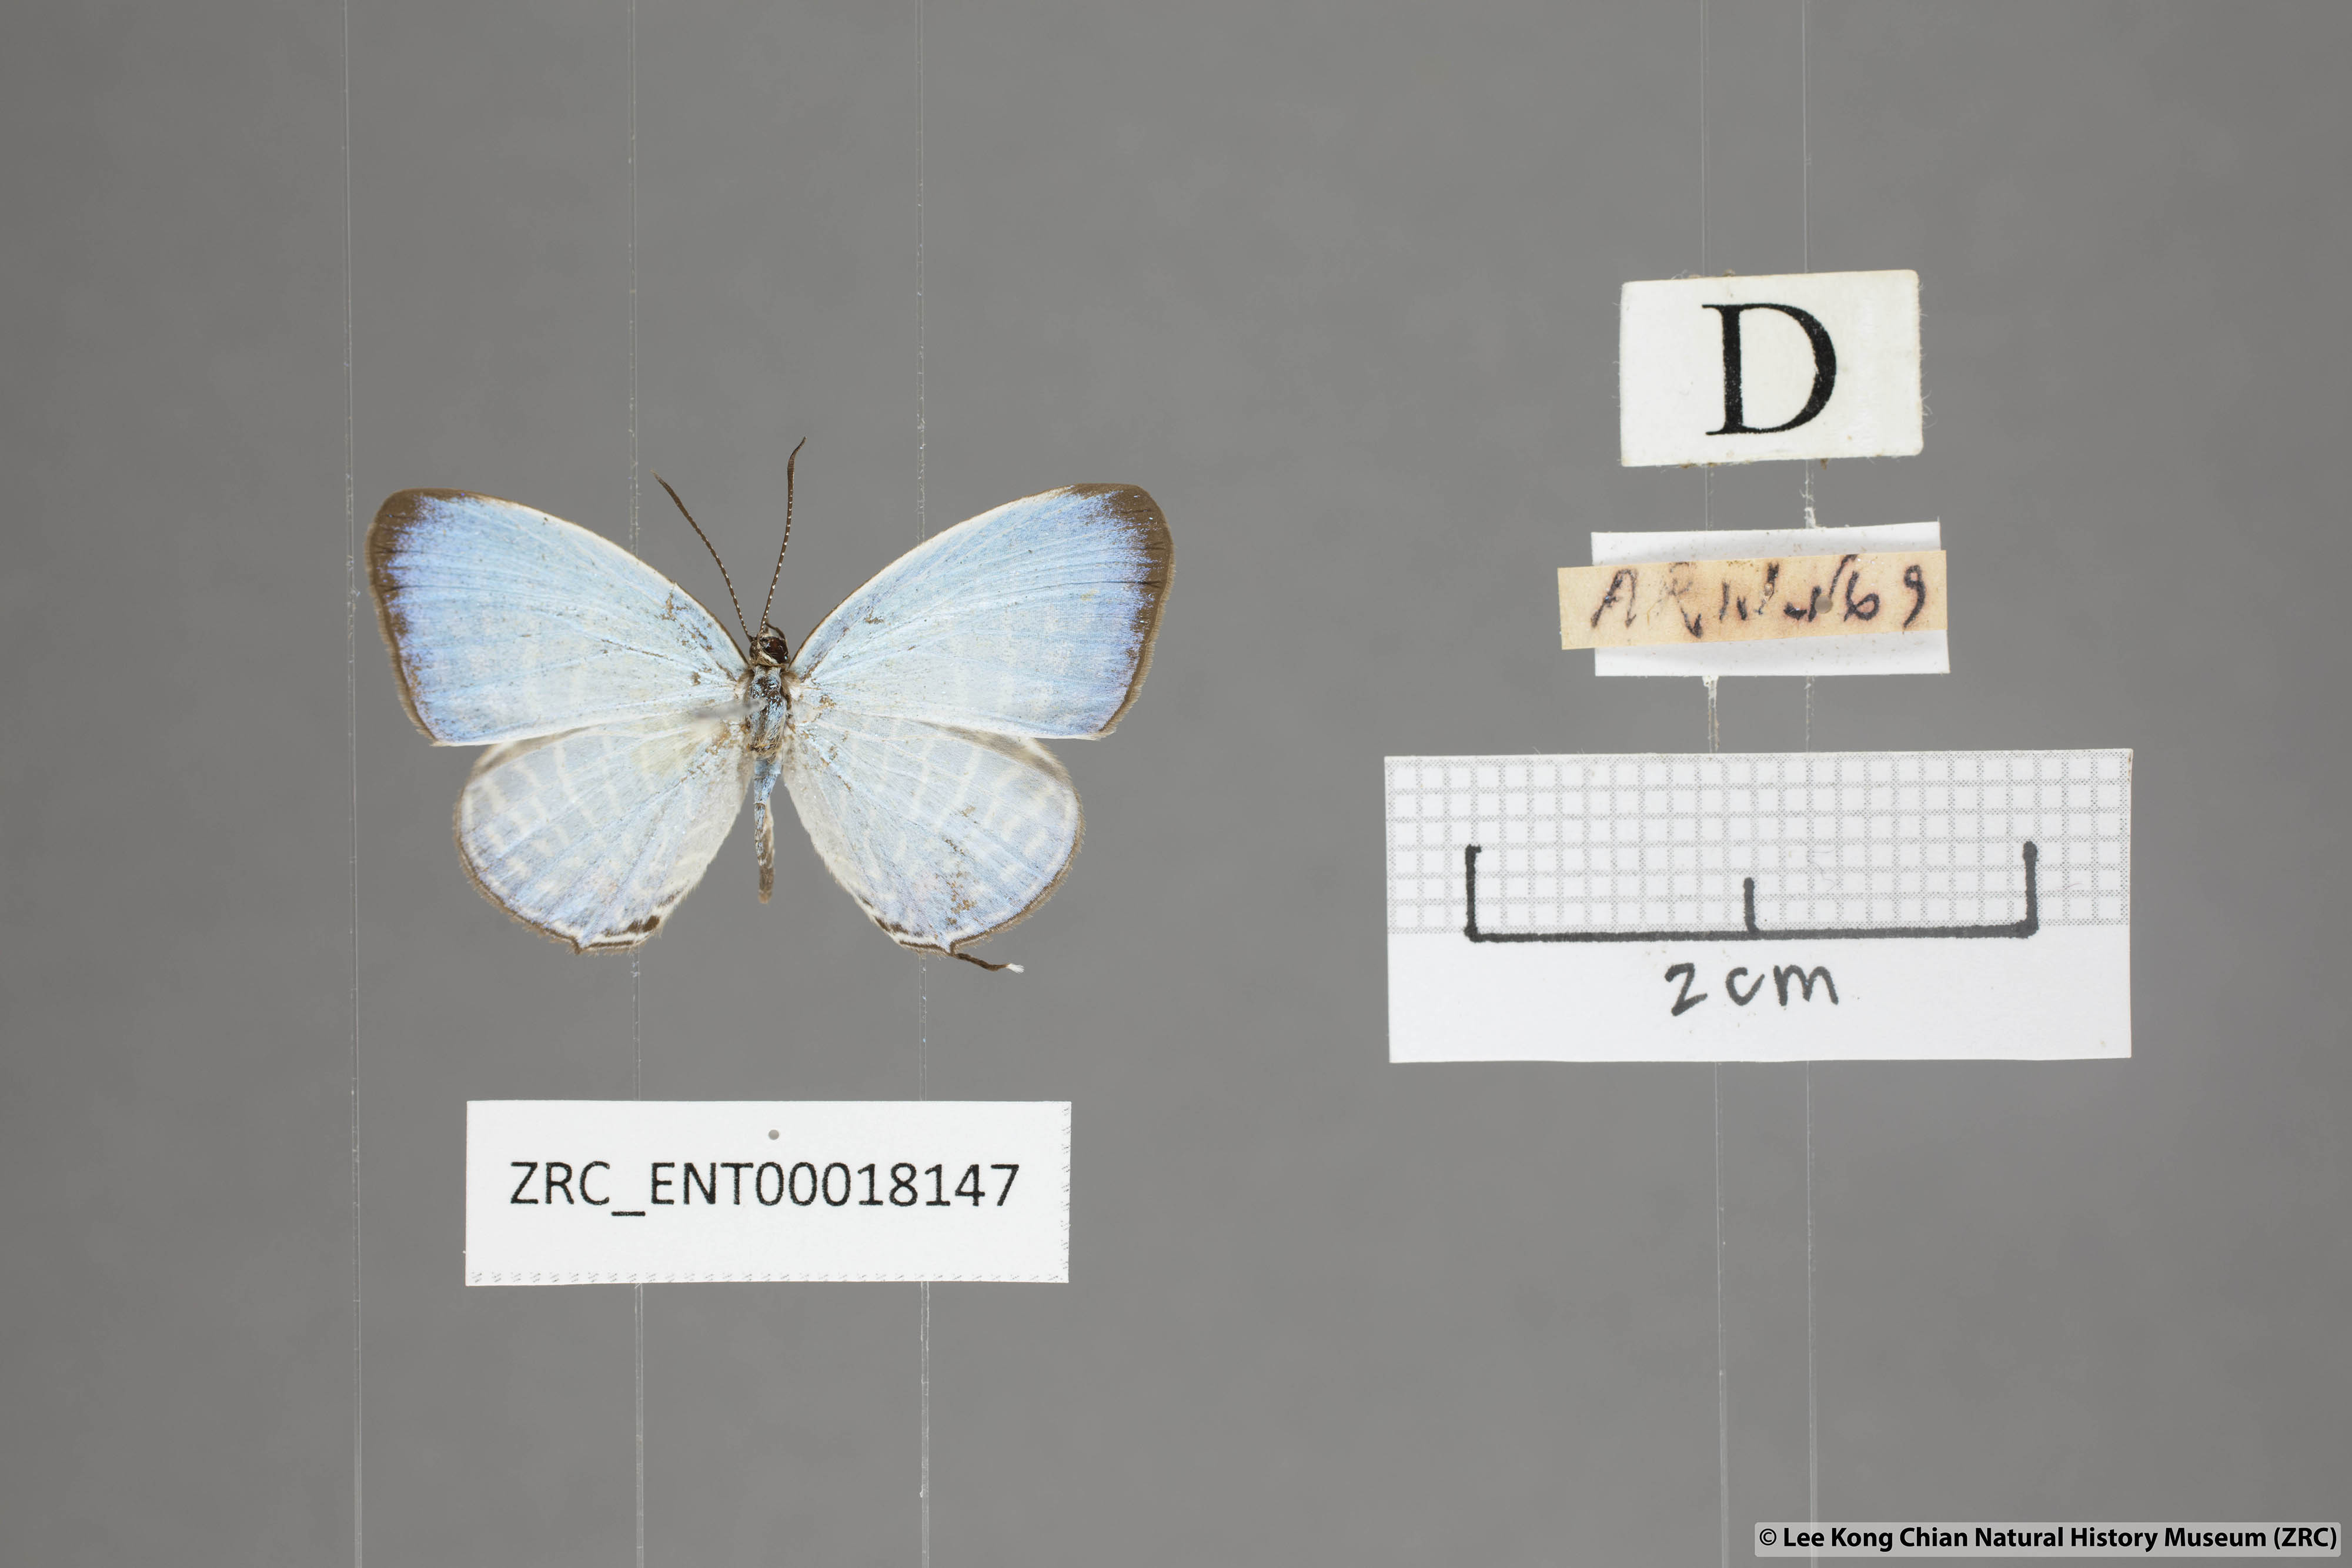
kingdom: Animalia
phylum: Arthropoda
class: Insecta
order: Lepidoptera
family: Lycaenidae
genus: Jamides
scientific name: Jamides parasaturata
